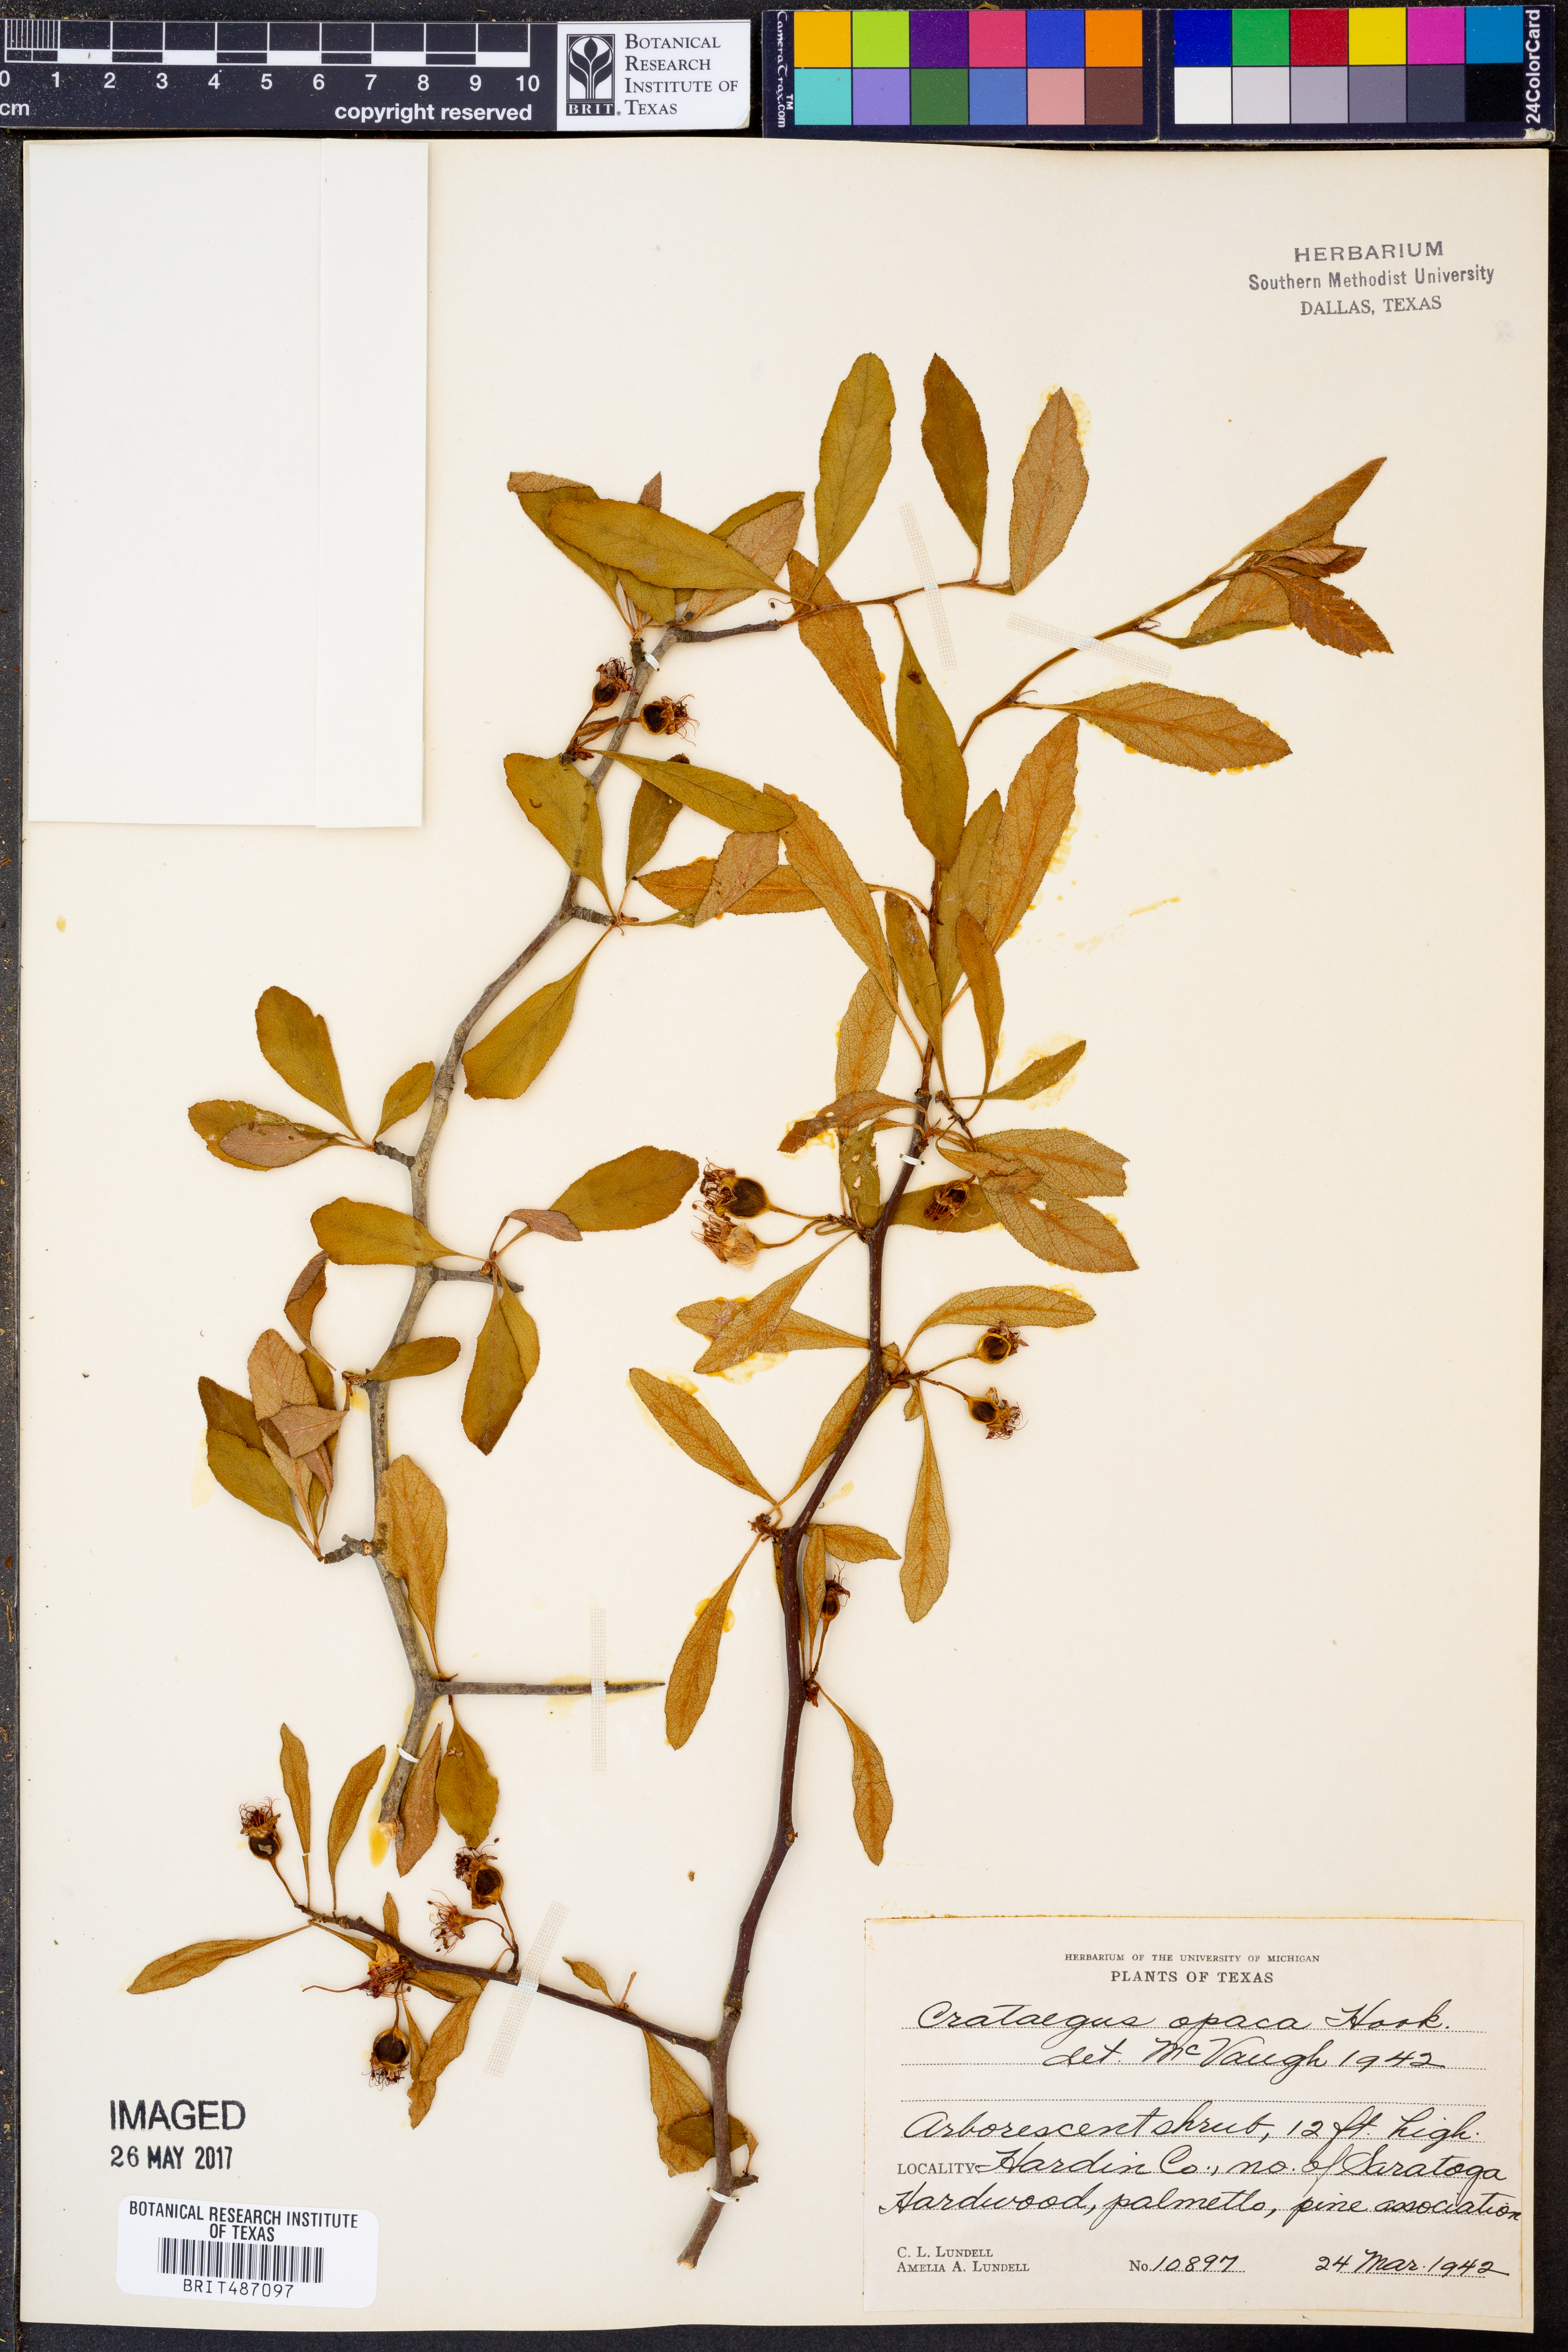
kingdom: Plantae
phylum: Tracheophyta
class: Magnoliopsida
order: Rosales
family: Rosaceae
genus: Crataegus
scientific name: Crataegus opaca
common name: Apple haw
